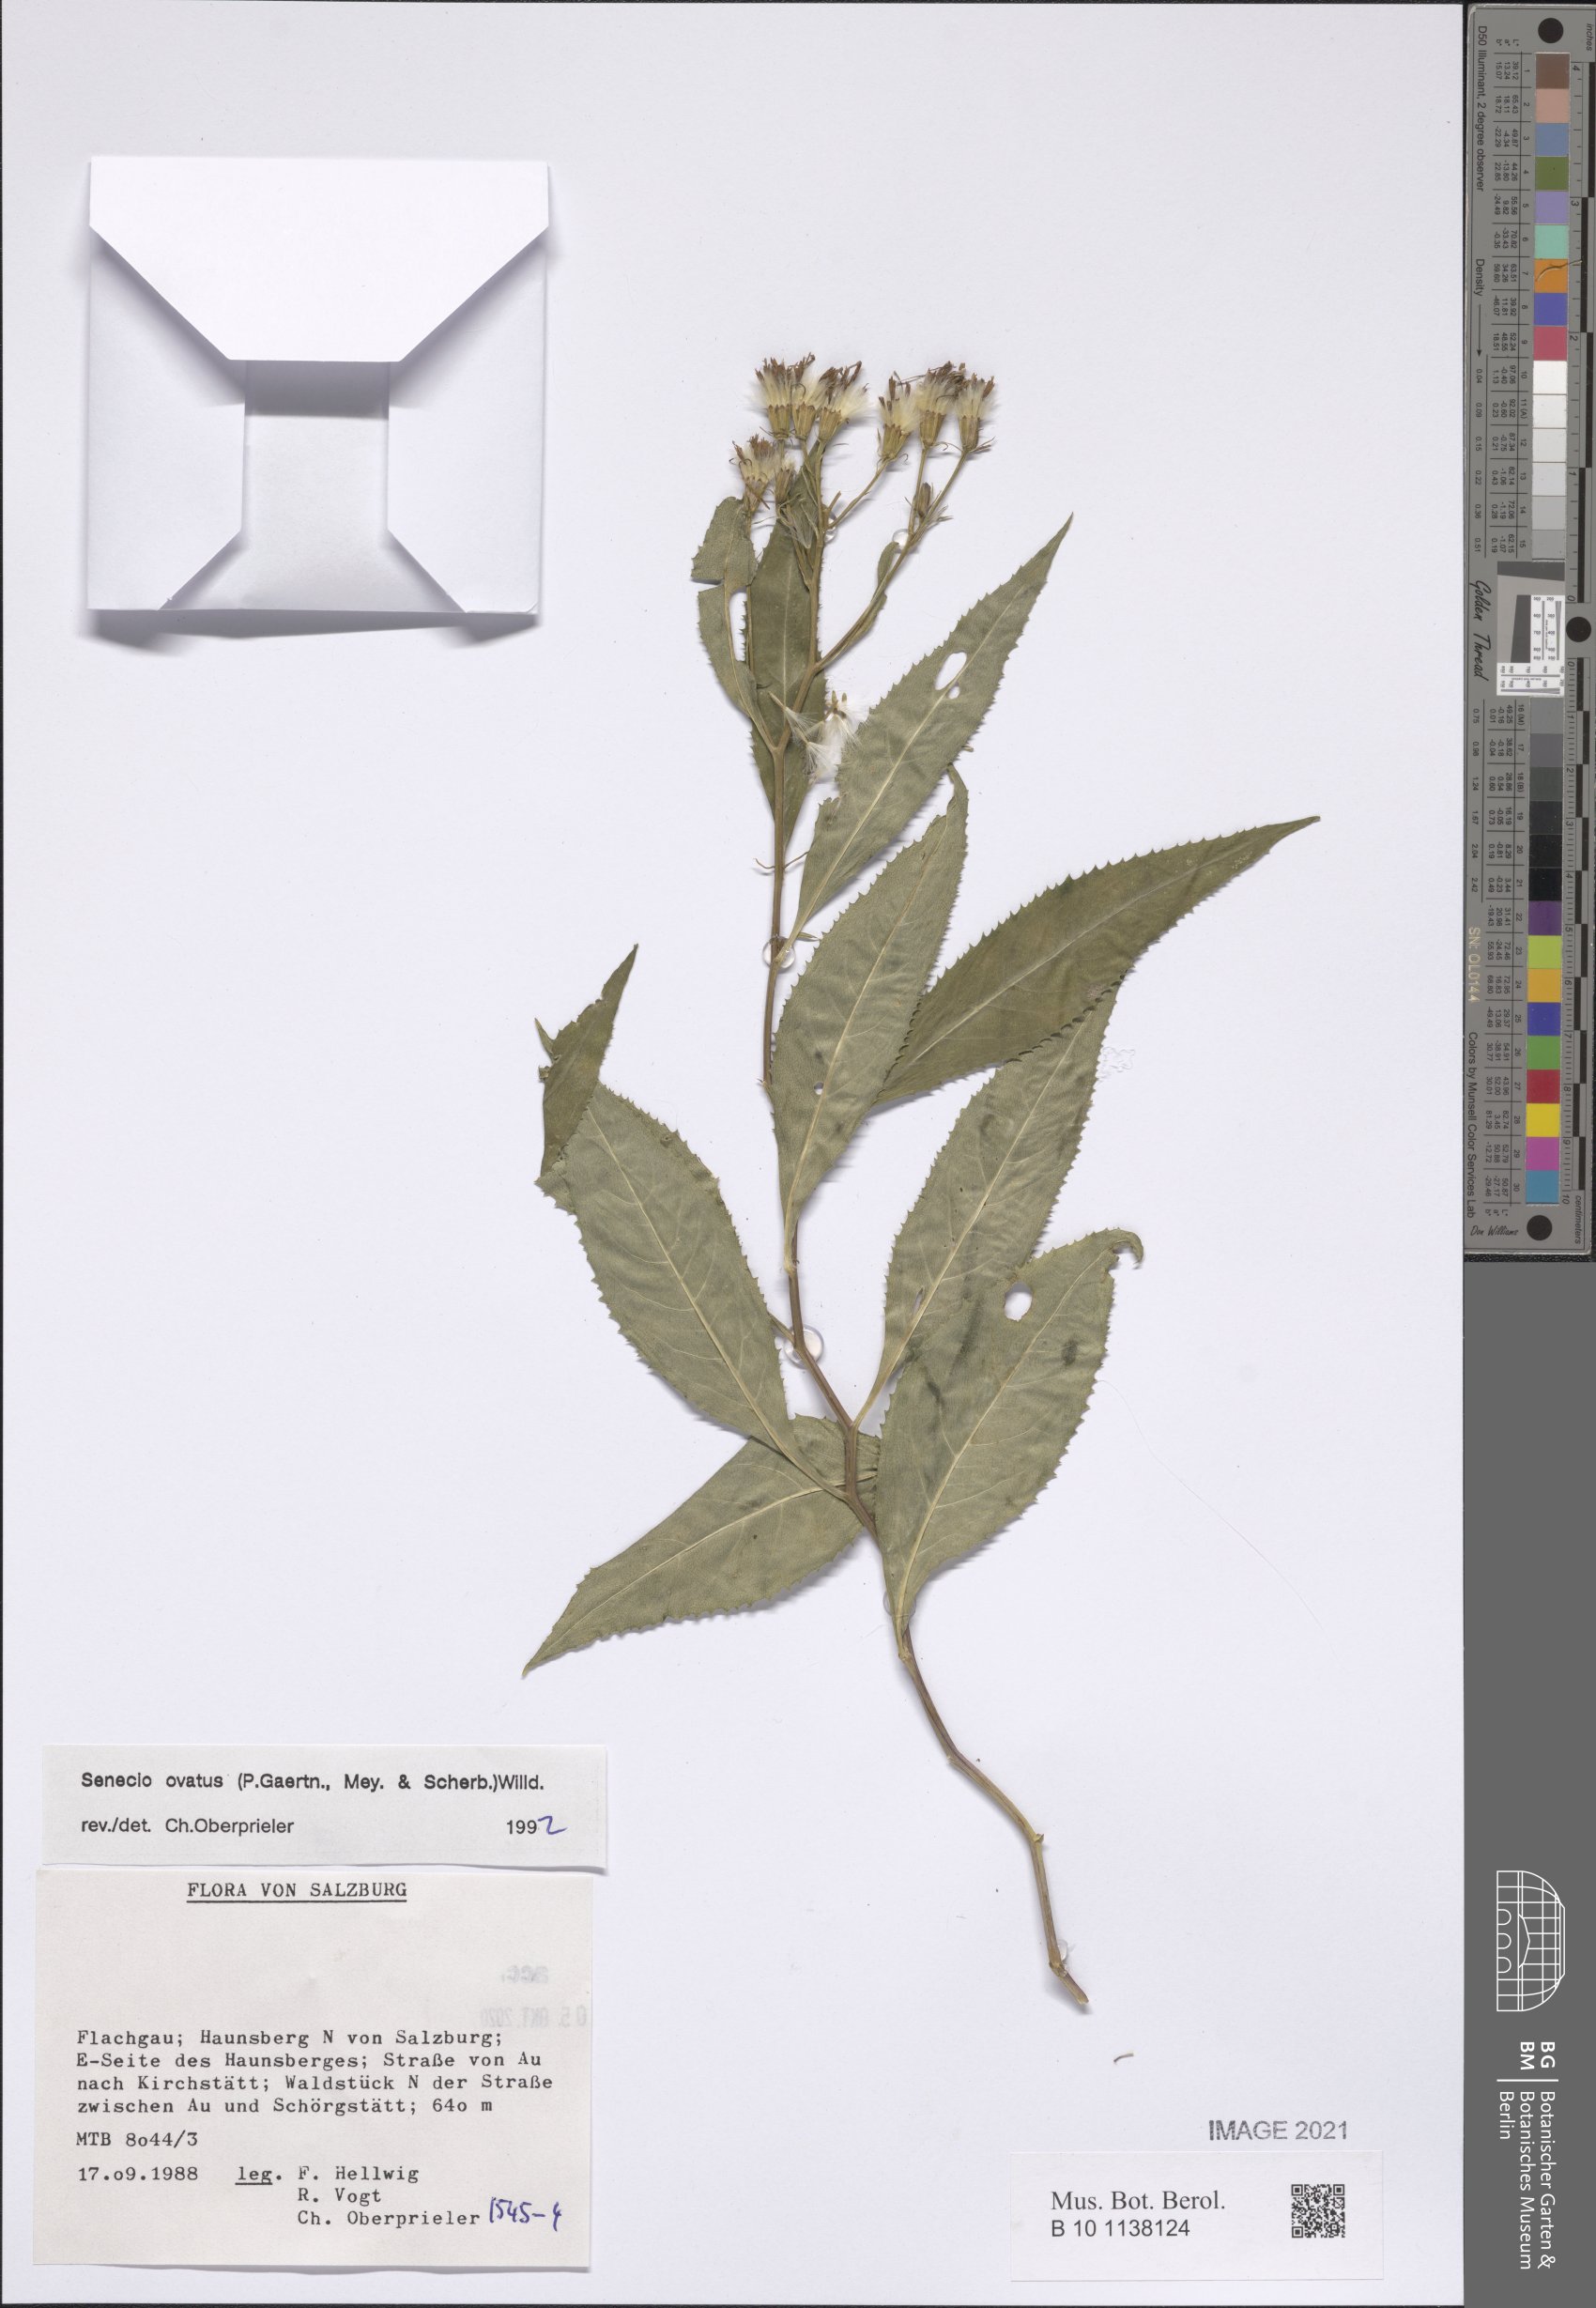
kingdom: Plantae
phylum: Tracheophyta
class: Magnoliopsida
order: Asterales
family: Asteraceae
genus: Senecio
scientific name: Senecio ovatus
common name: Wood ragwort
